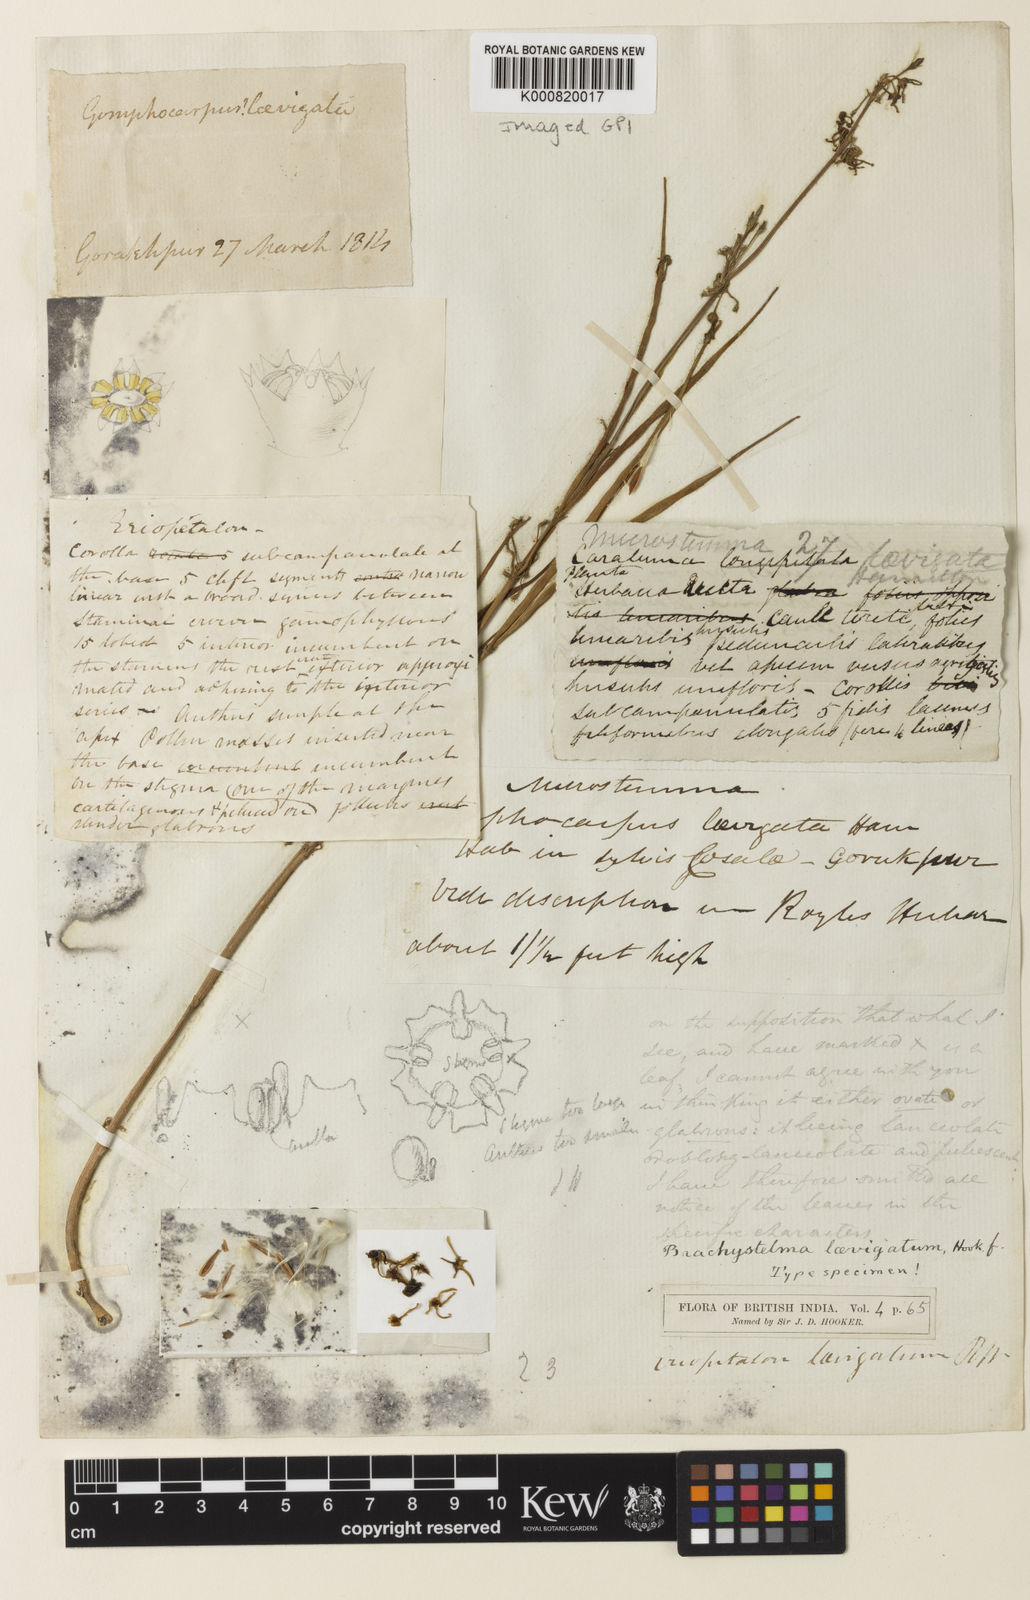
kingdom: Plantae
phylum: Tracheophyta
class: Magnoliopsida
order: Gentianales
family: Apocynaceae
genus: Ceropegia
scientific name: Ceropegia laevigata
